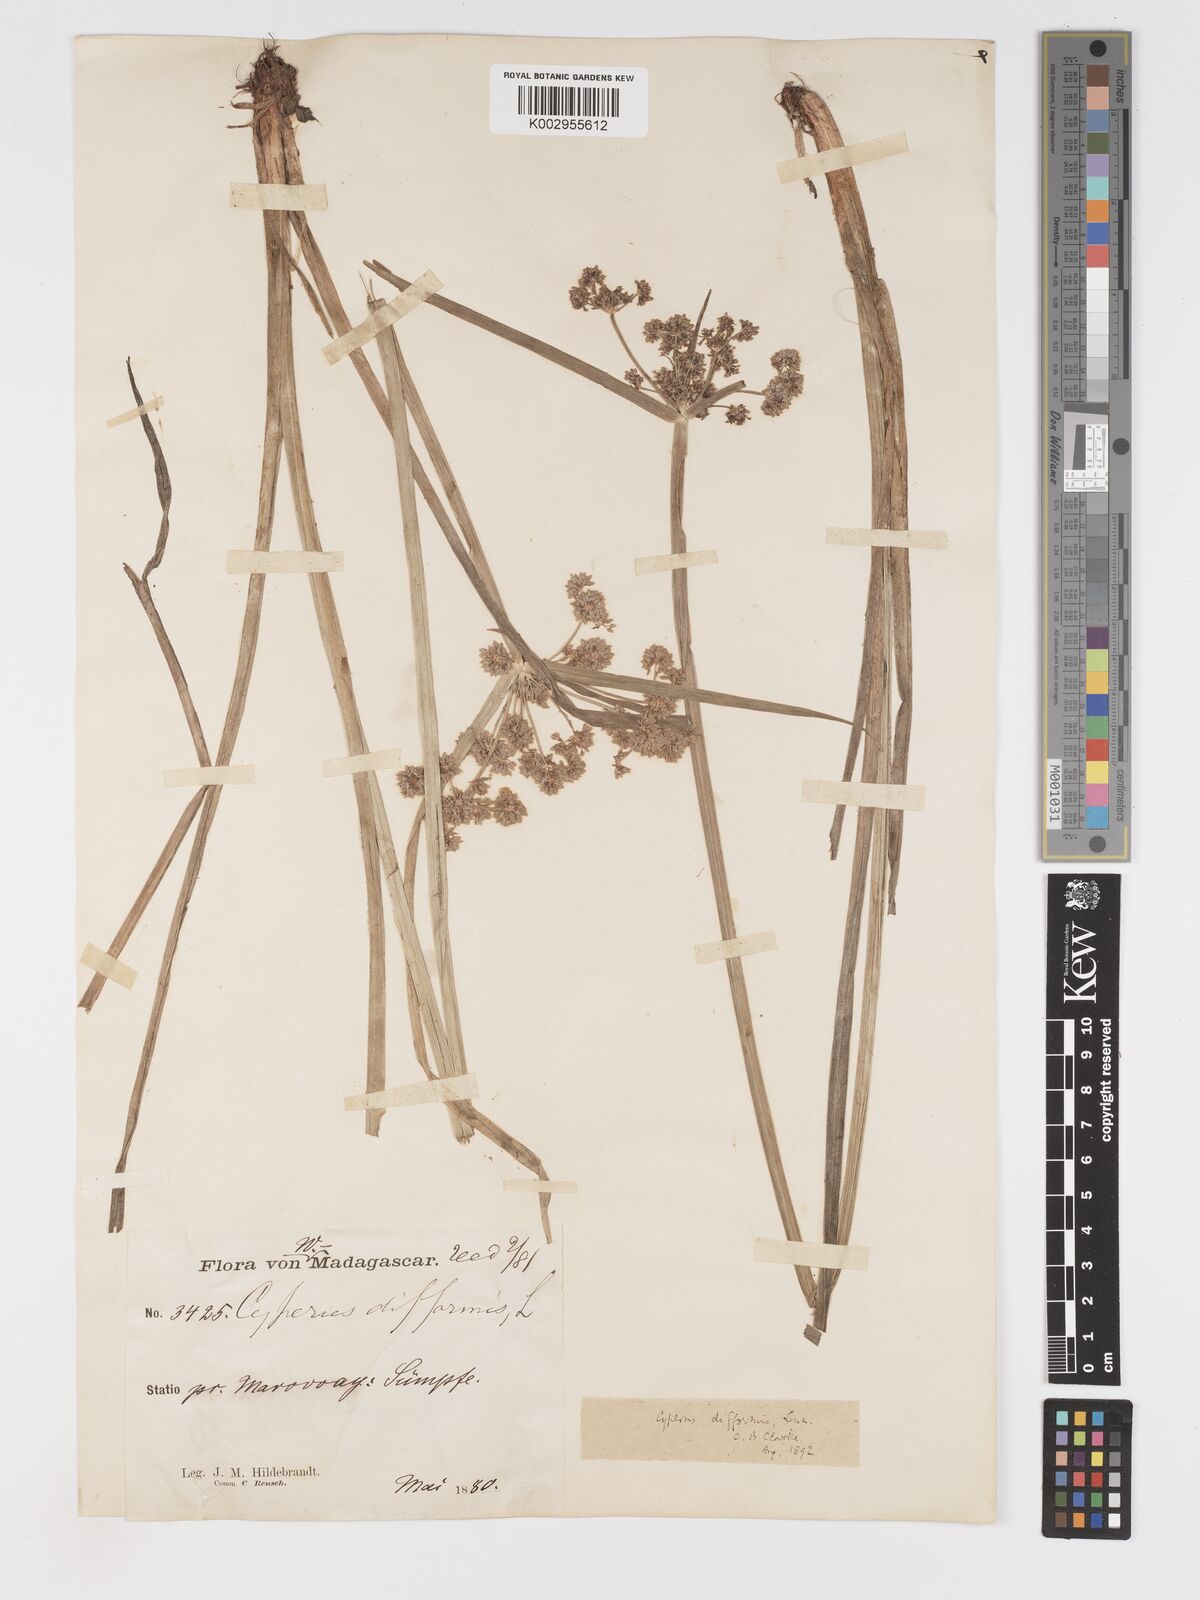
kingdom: Plantae
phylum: Tracheophyta
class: Liliopsida
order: Poales
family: Cyperaceae
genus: Cyperus
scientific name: Cyperus difformis
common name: Variable flatsedge
